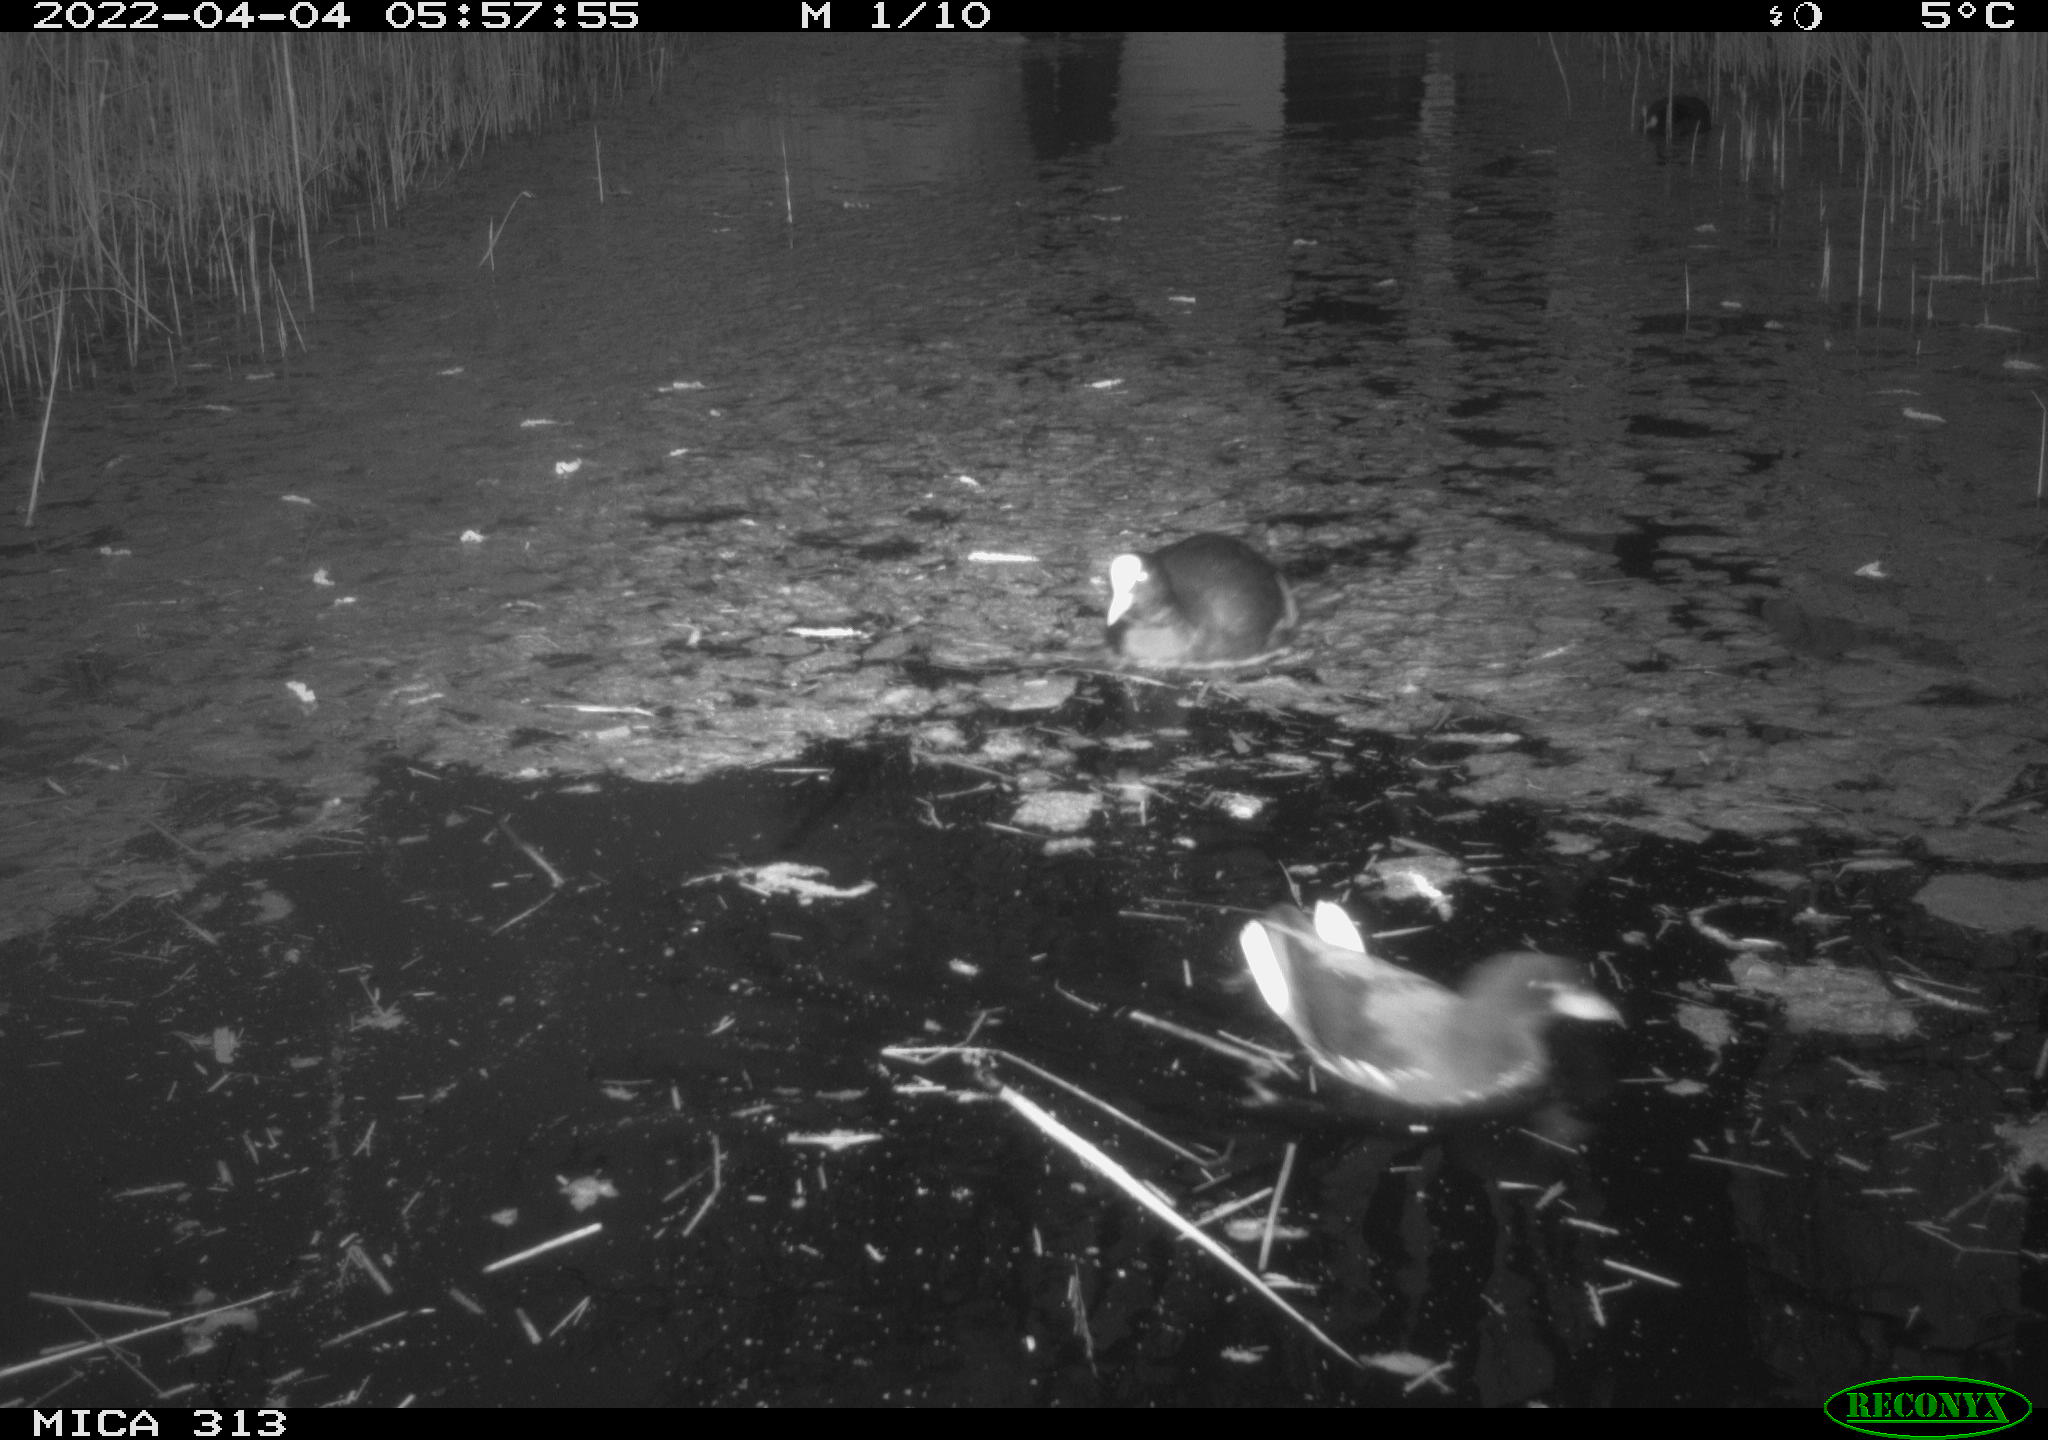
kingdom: Animalia
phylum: Chordata
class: Aves
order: Gruiformes
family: Rallidae
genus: Gallinula
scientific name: Gallinula chloropus
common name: Common moorhen
